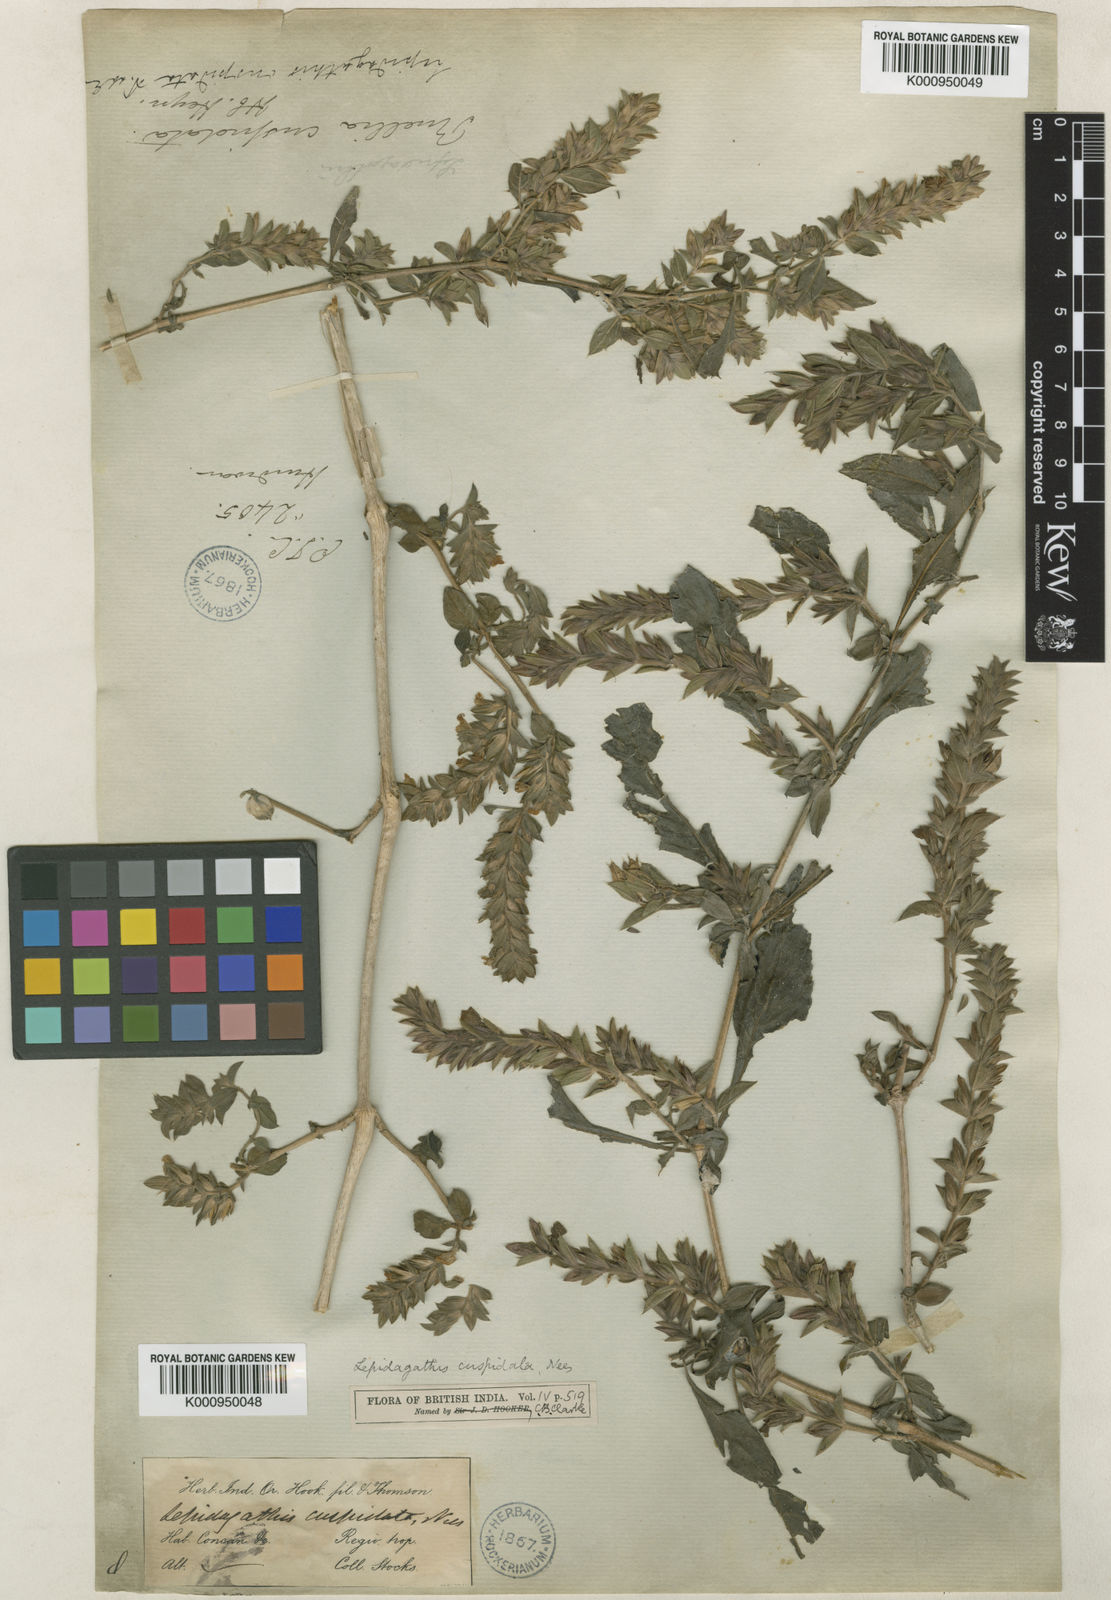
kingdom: Plantae
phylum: Tracheophyta
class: Magnoliopsida
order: Lamiales
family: Acanthaceae
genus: Lepidagathis
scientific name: Lepidagathis cuspidata
